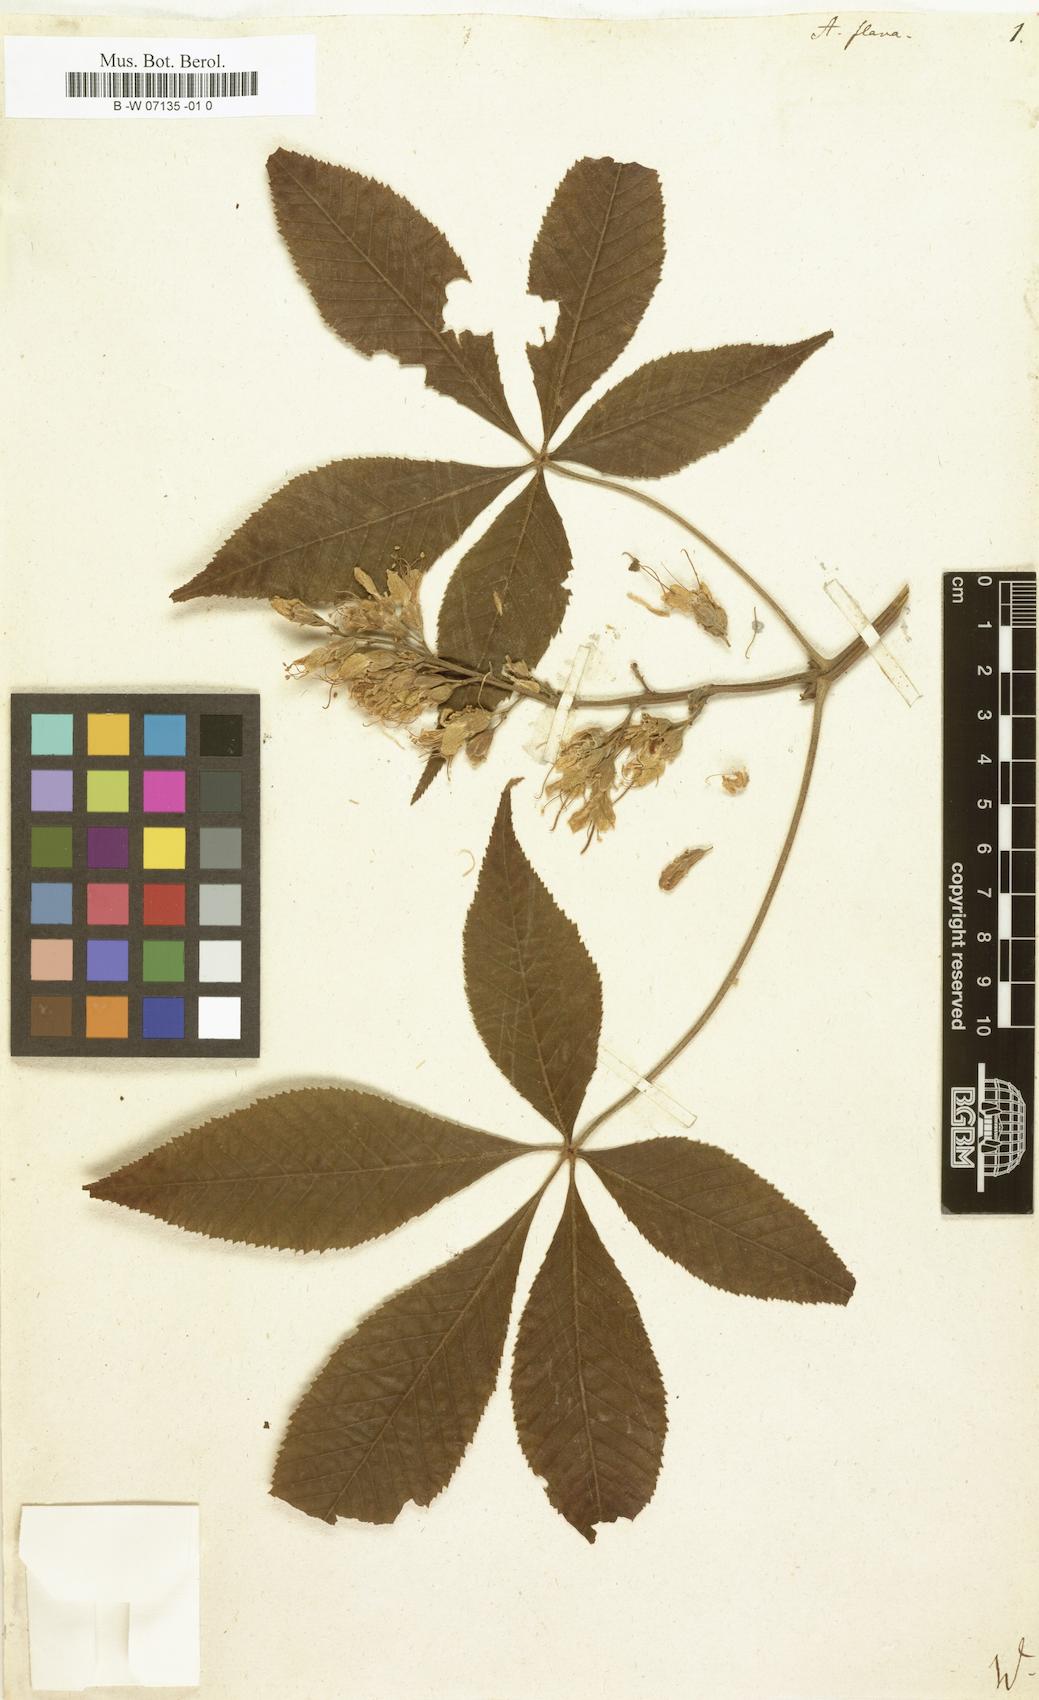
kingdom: Plantae
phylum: Tracheophyta
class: Magnoliopsida
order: Sapindales
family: Sapindaceae
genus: Aesculus
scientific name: Aesculus flava
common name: Yellow buckeye
